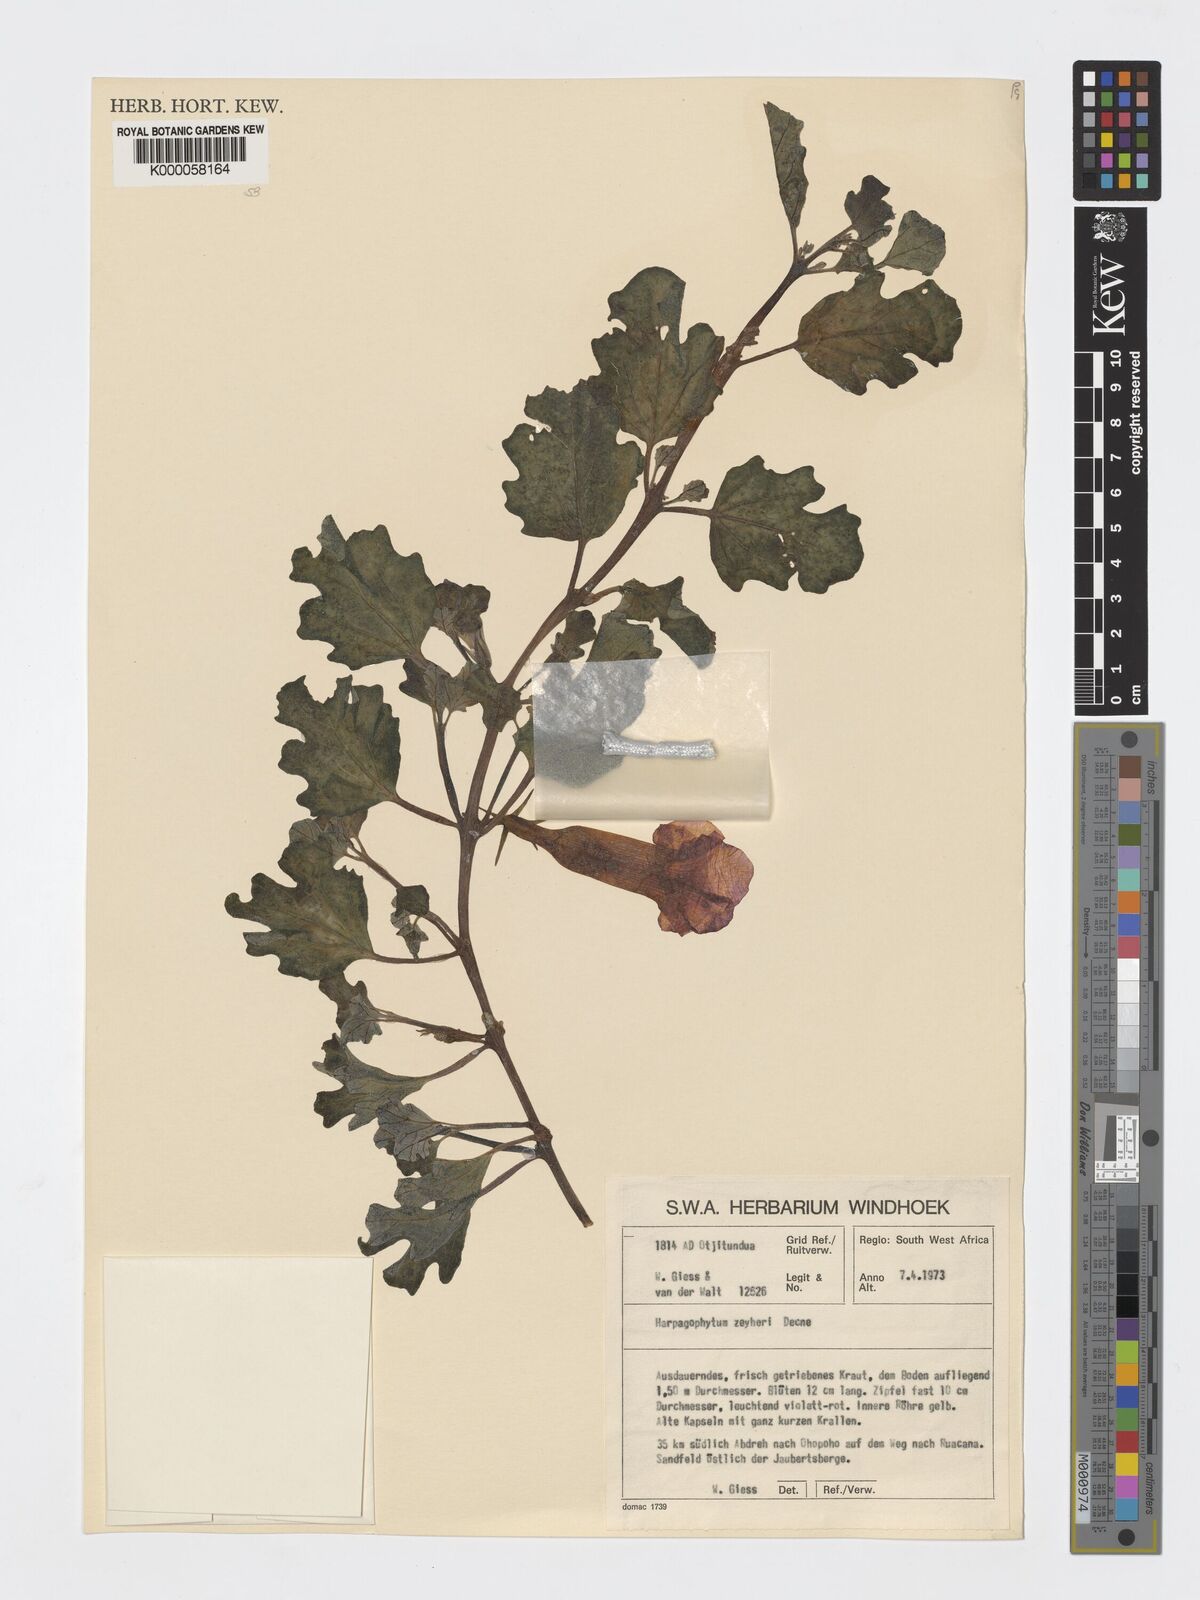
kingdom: Plantae
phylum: Tracheophyta
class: Magnoliopsida
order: Lamiales
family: Pedaliaceae
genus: Harpagophytum
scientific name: Harpagophytum zeyheri
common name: Grappleplant
